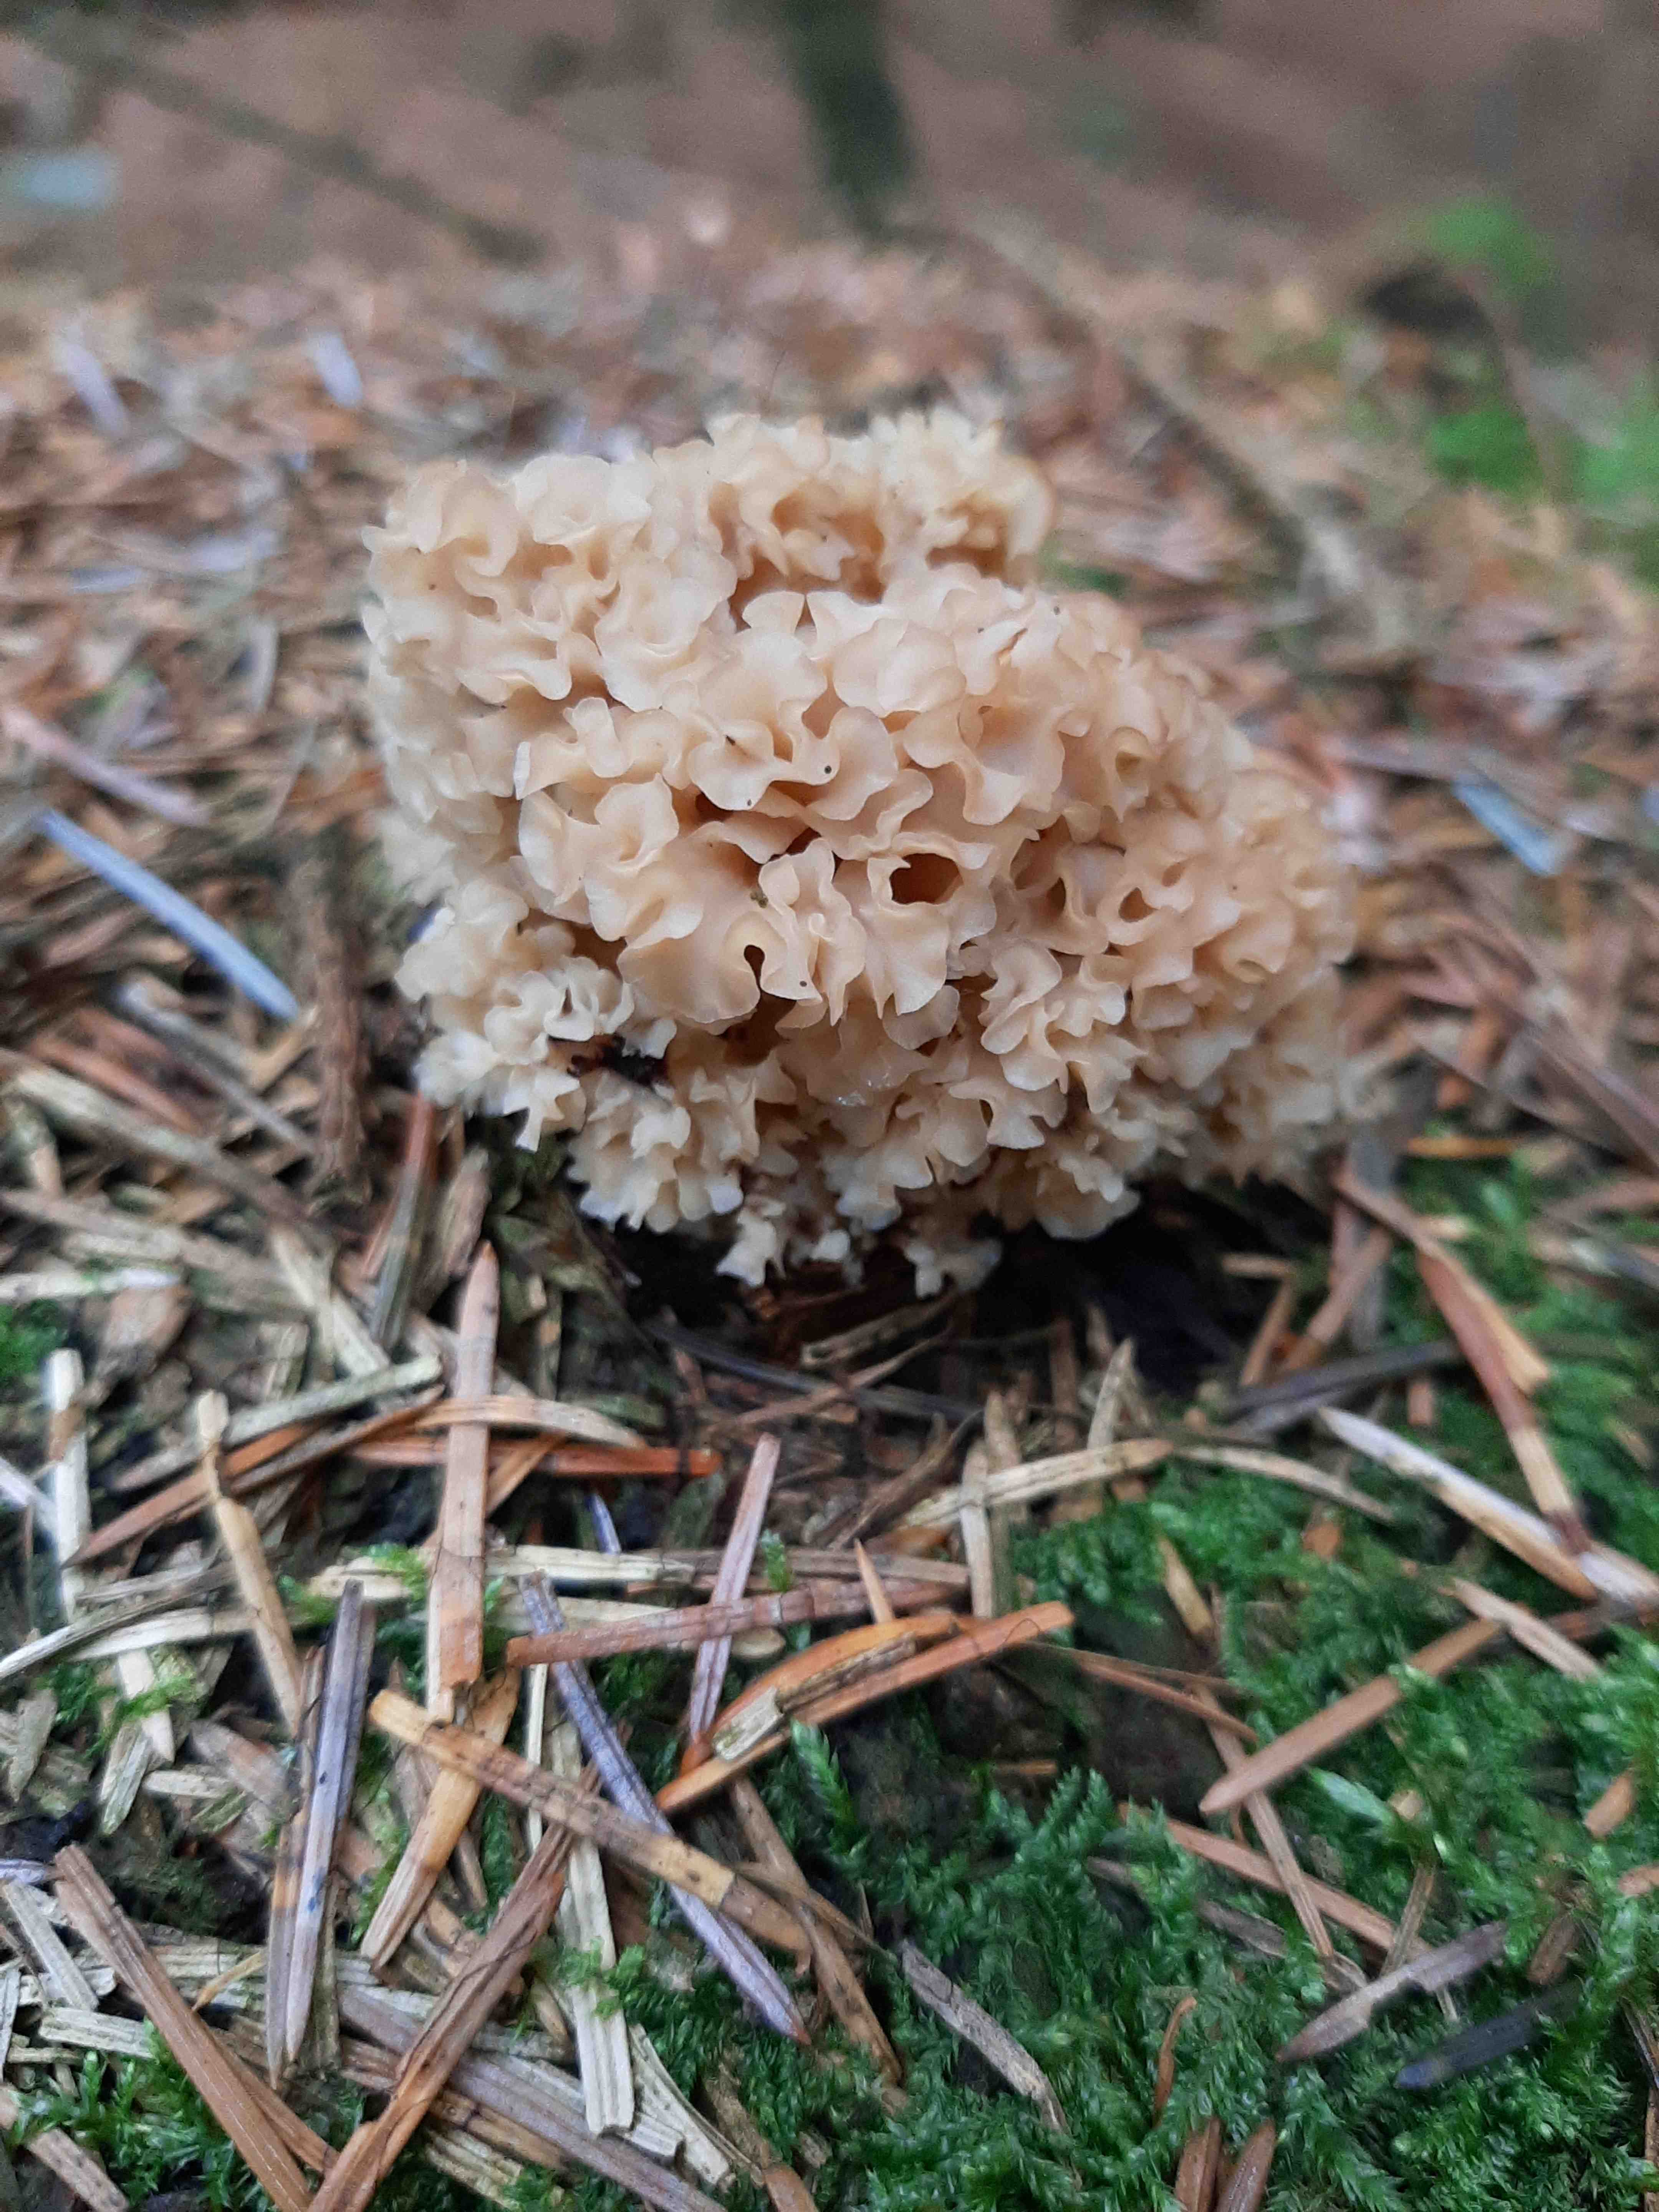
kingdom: Fungi
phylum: Basidiomycota
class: Agaricomycetes
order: Polyporales
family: Sparassidaceae
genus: Sparassis
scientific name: Sparassis crispa
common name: kruset blomkålssvamp
